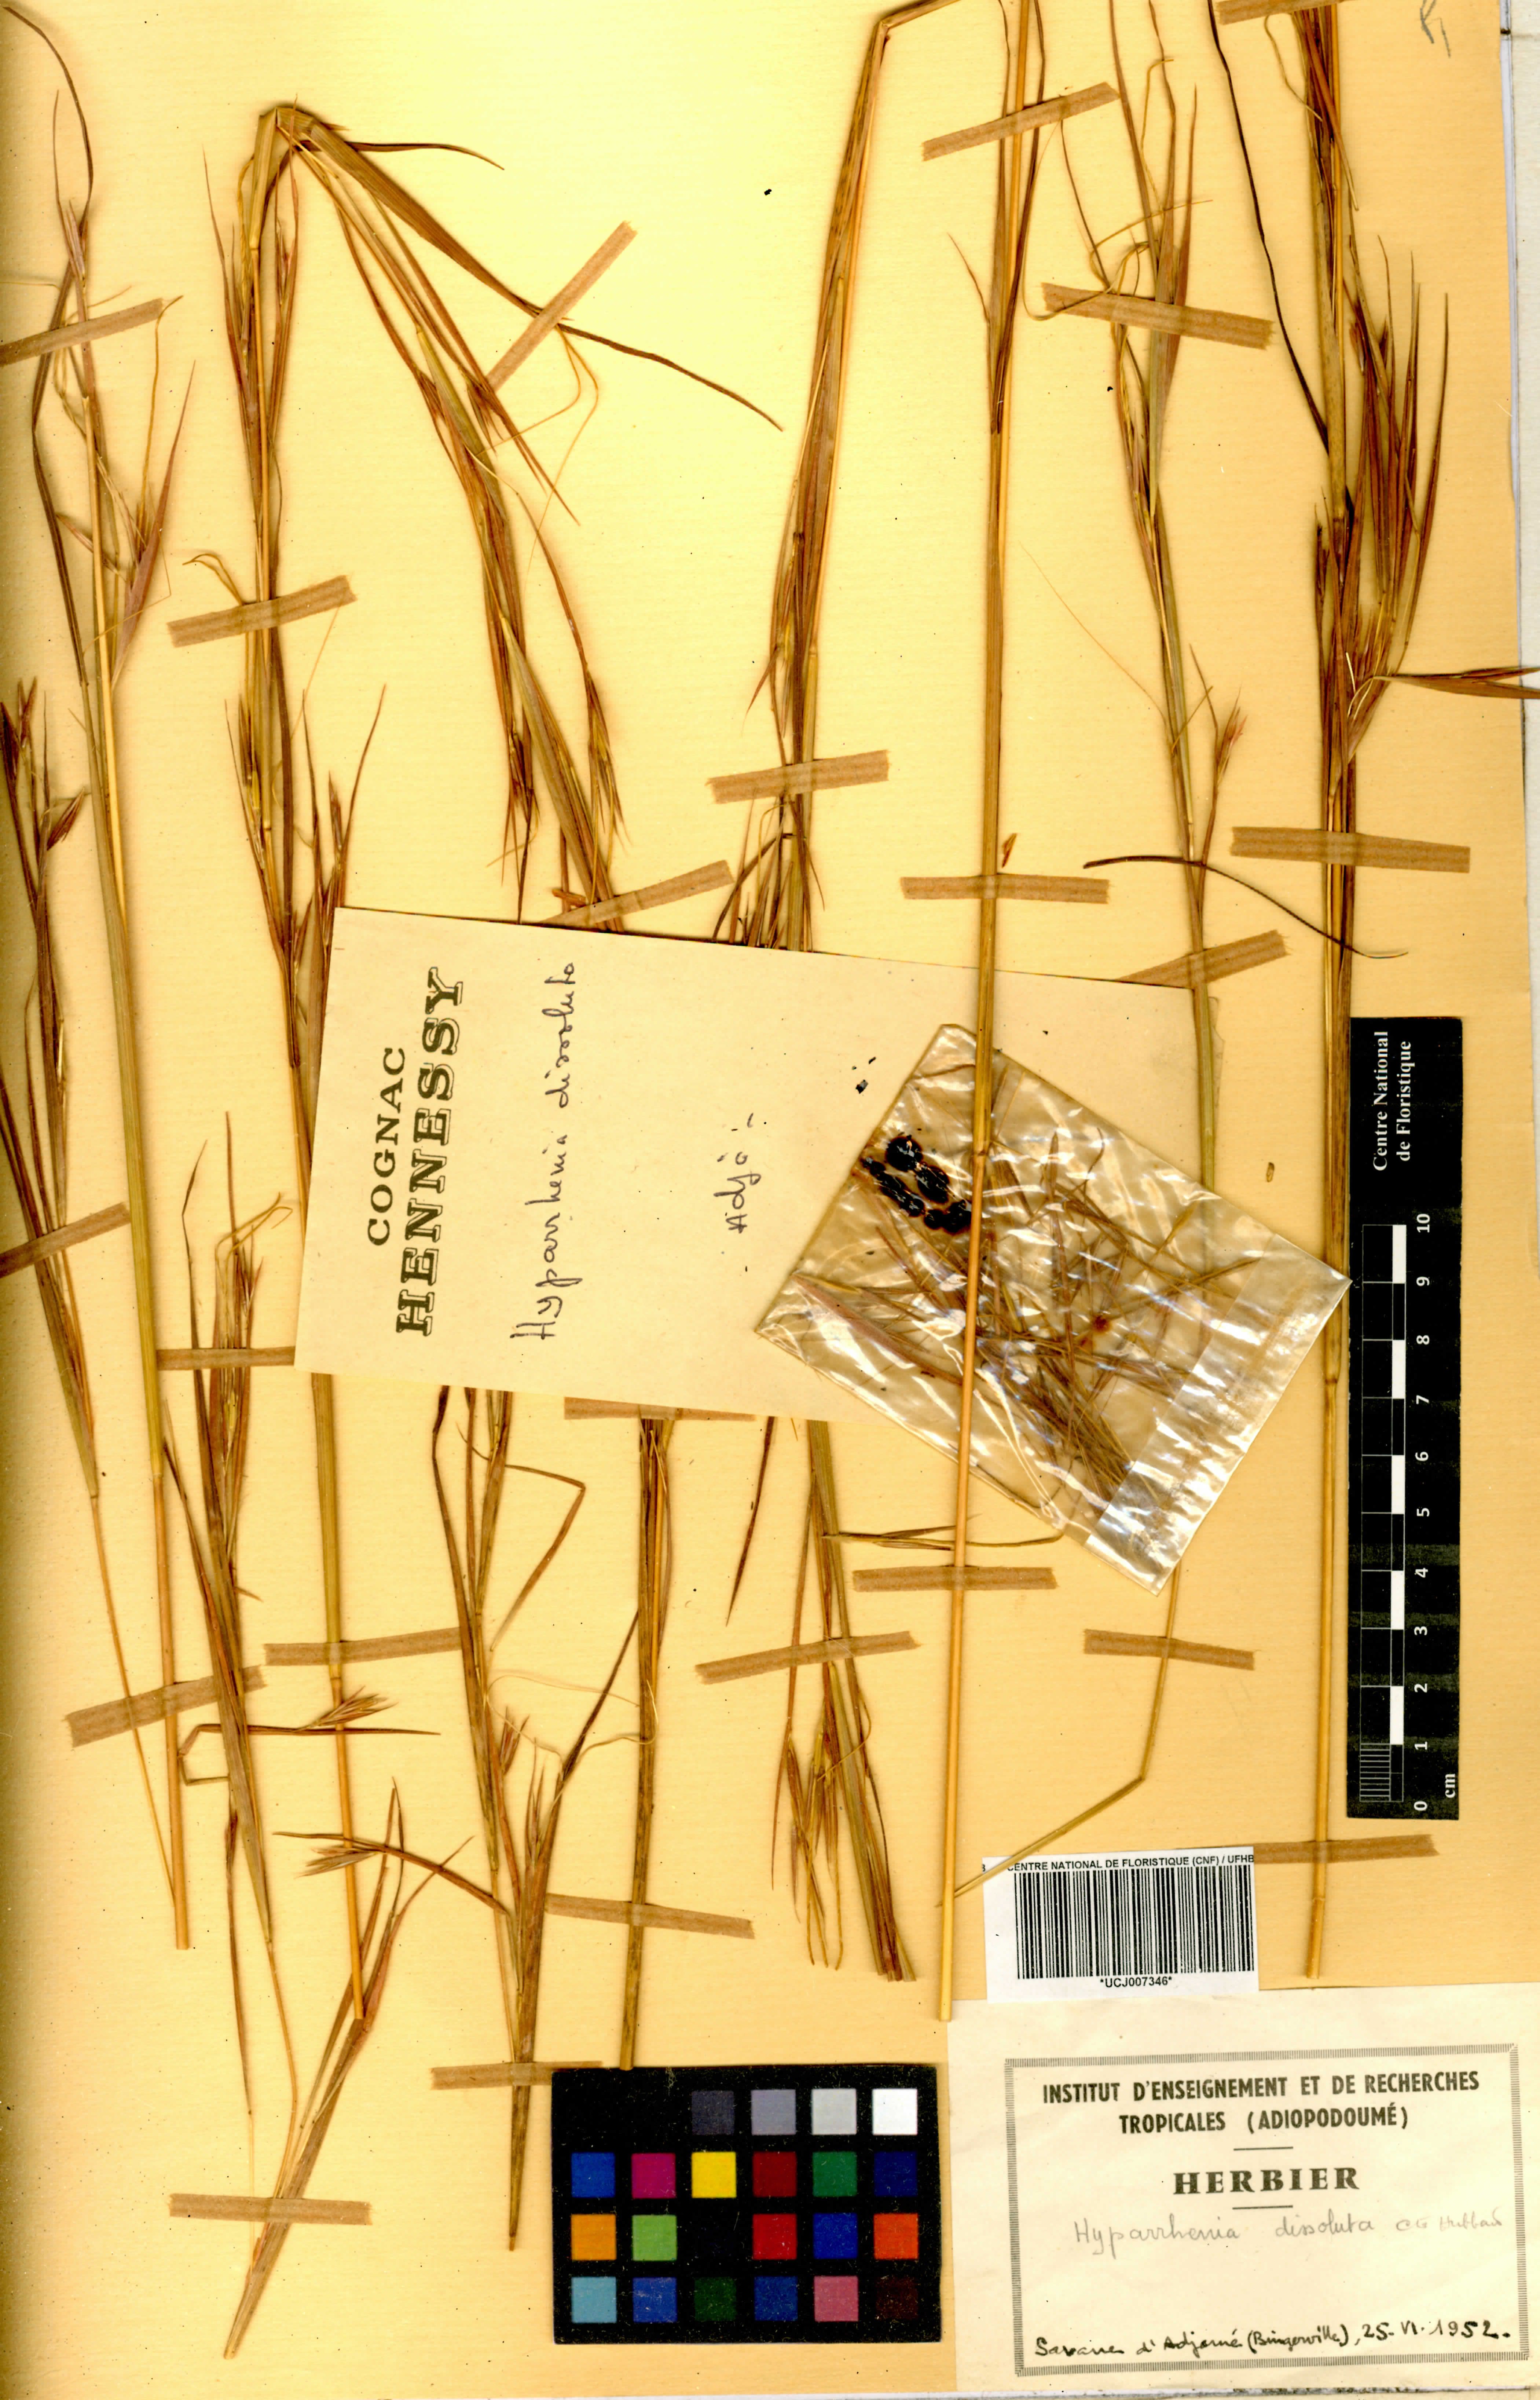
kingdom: Plantae
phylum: Tracheophyta
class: Liliopsida
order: Poales
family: Poaceae
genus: Hyperthelia
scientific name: Hyperthelia dissoluta
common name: Yellow thatching grass
